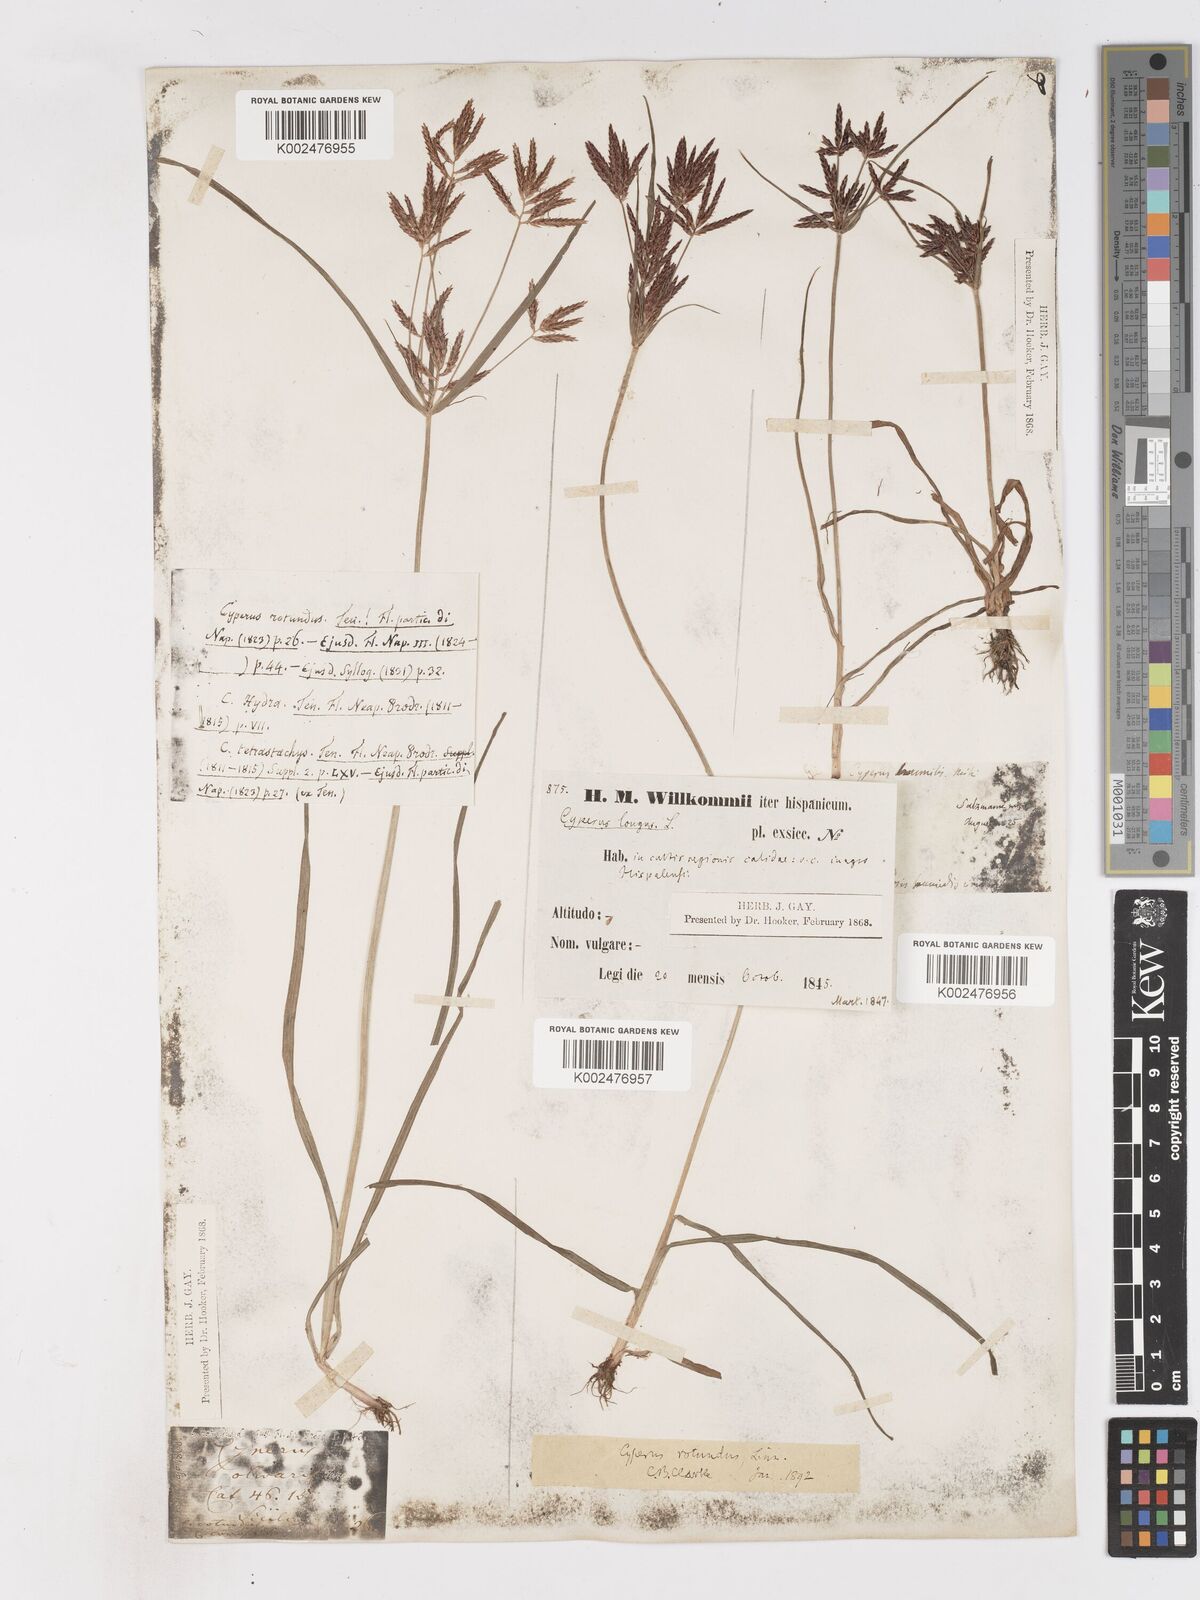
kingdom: Plantae
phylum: Tracheophyta
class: Liliopsida
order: Poales
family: Cyperaceae
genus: Cyperus
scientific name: Cyperus rotundus
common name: Nutgrass
